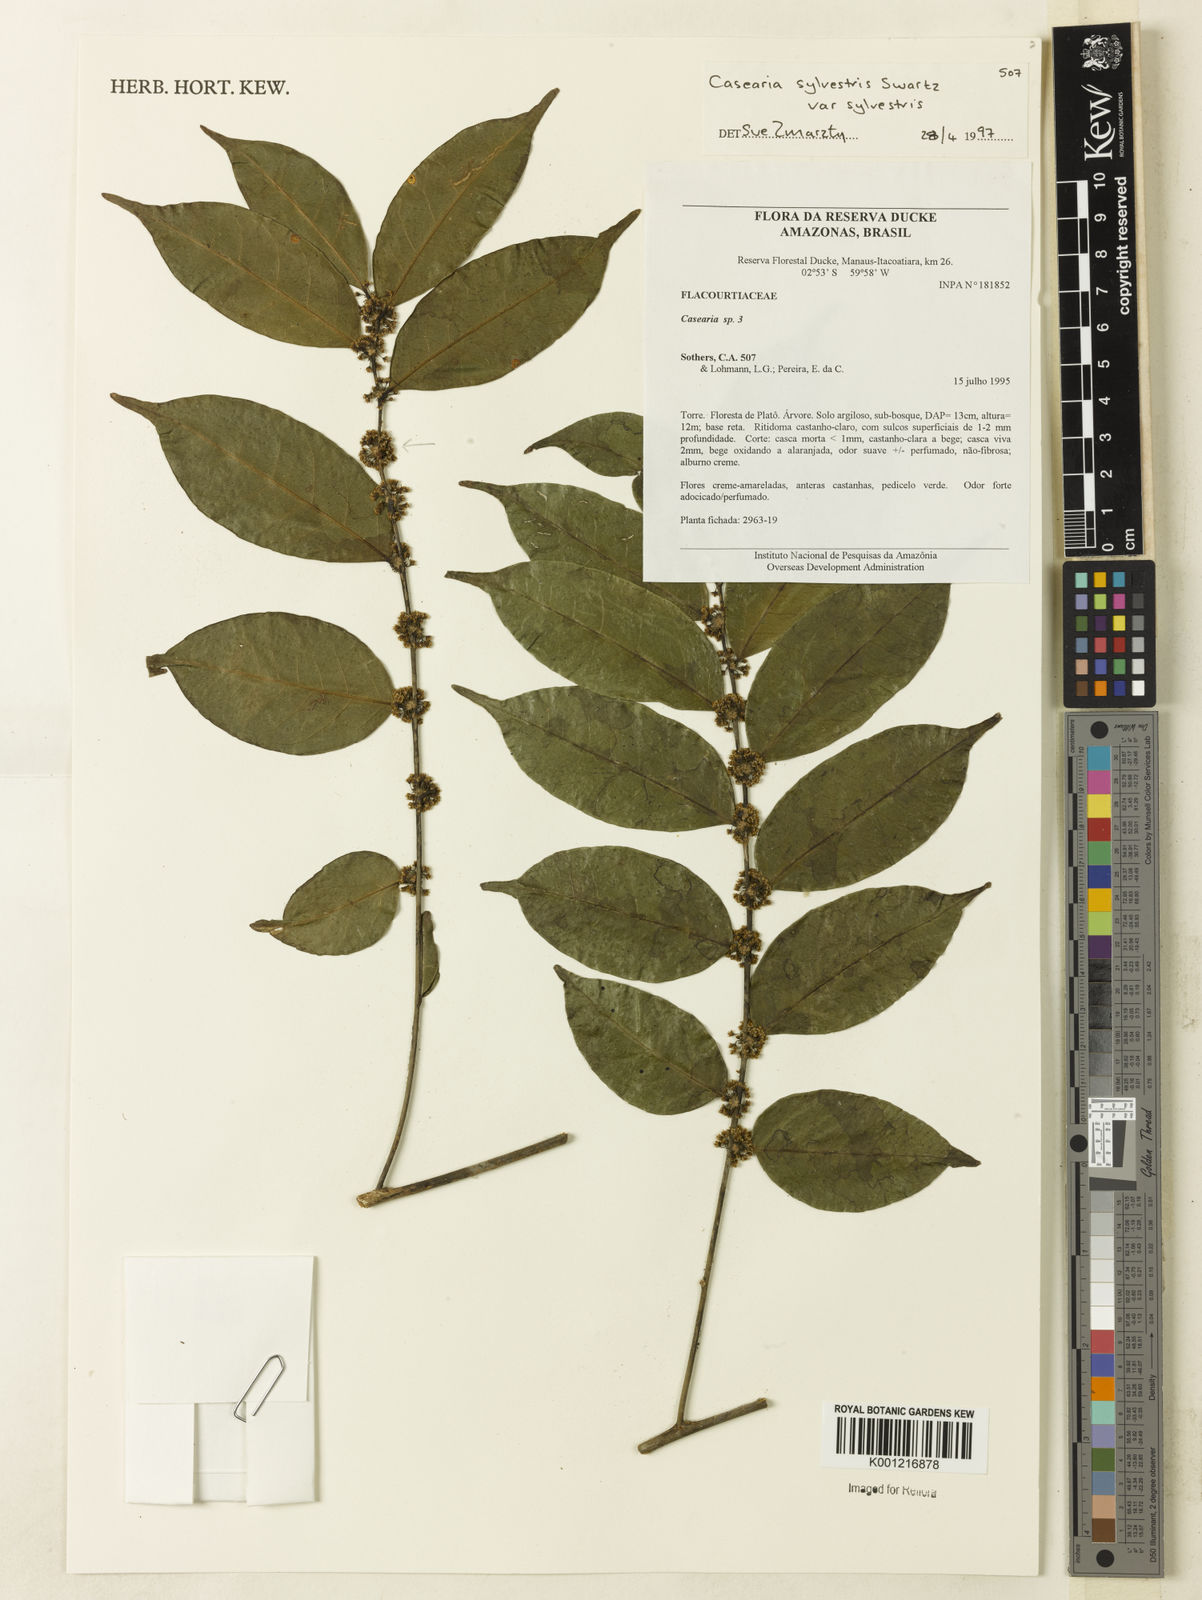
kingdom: Plantae
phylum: Tracheophyta
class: Magnoliopsida
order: Malpighiales
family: Salicaceae
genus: Casearia
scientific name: Casearia sylvestris
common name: Wild sage
